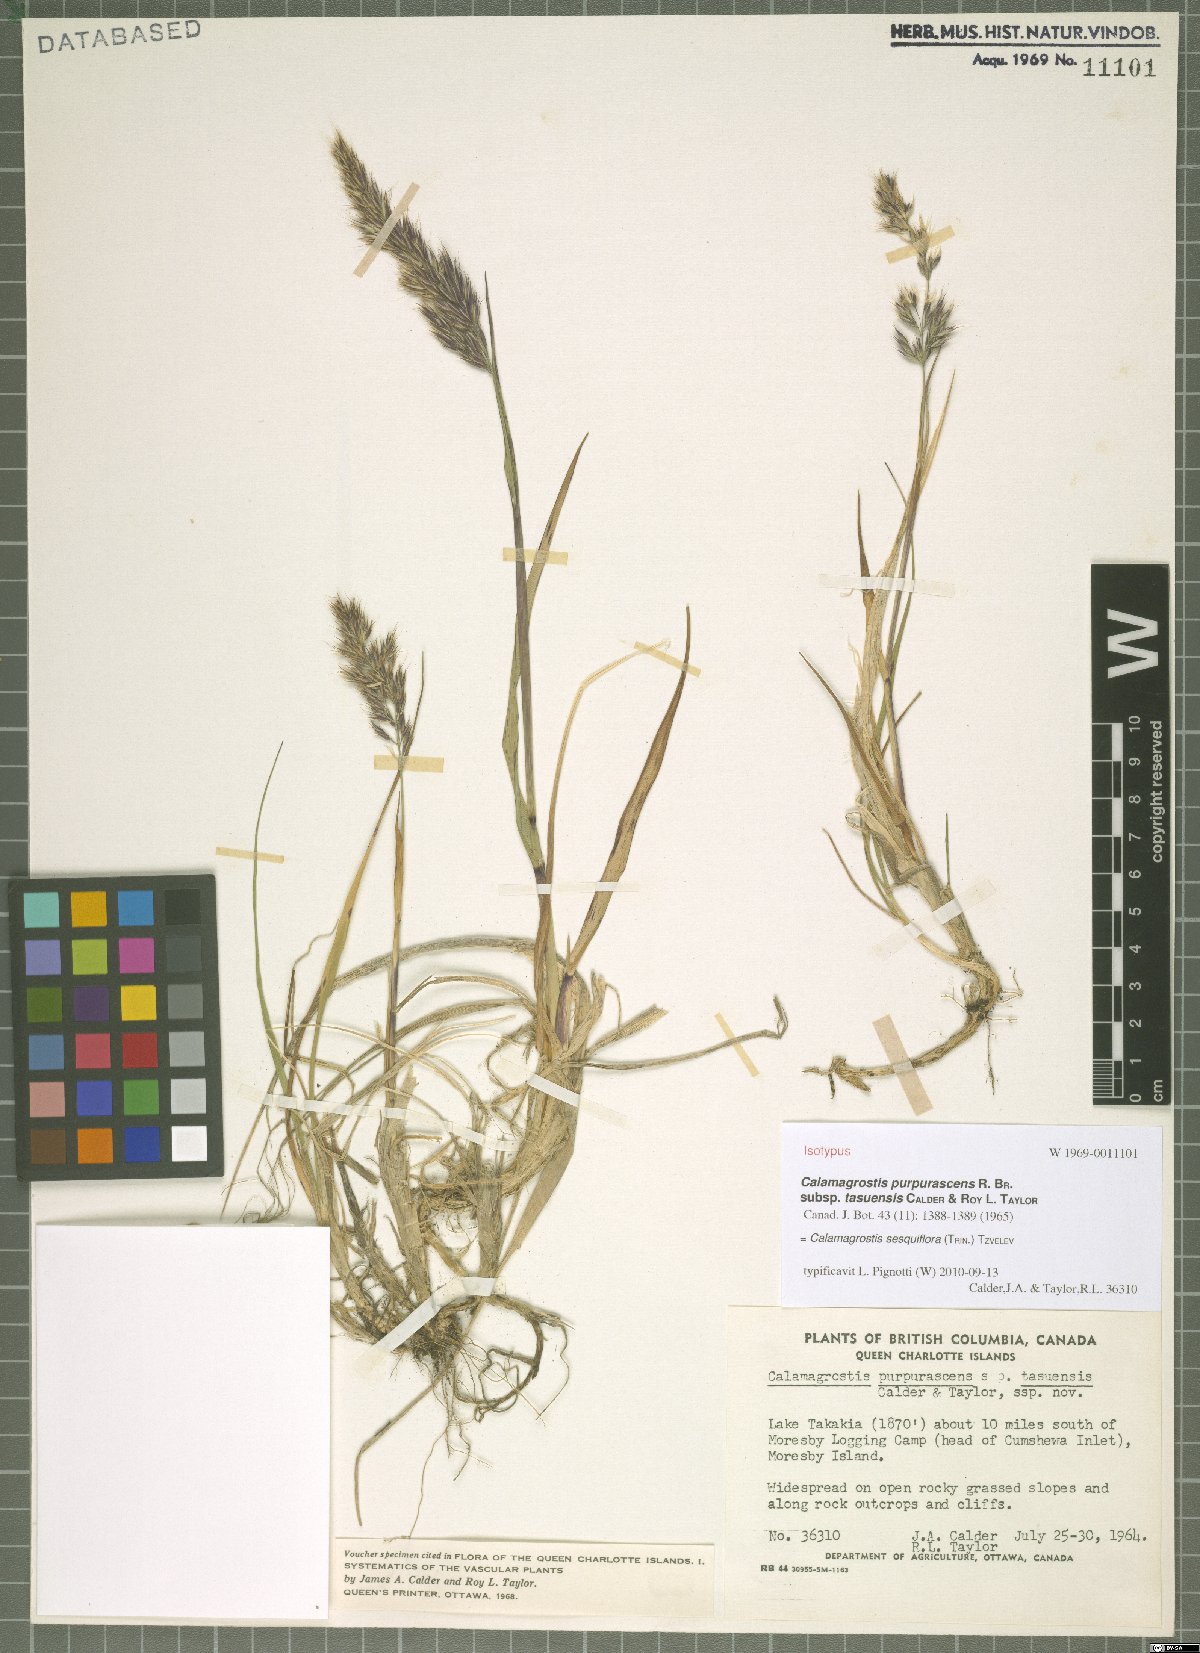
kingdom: Plantae
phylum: Tracheophyta
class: Liliopsida
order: Poales
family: Poaceae
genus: Calamagrostis
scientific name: Calamagrostis sesquiflora
